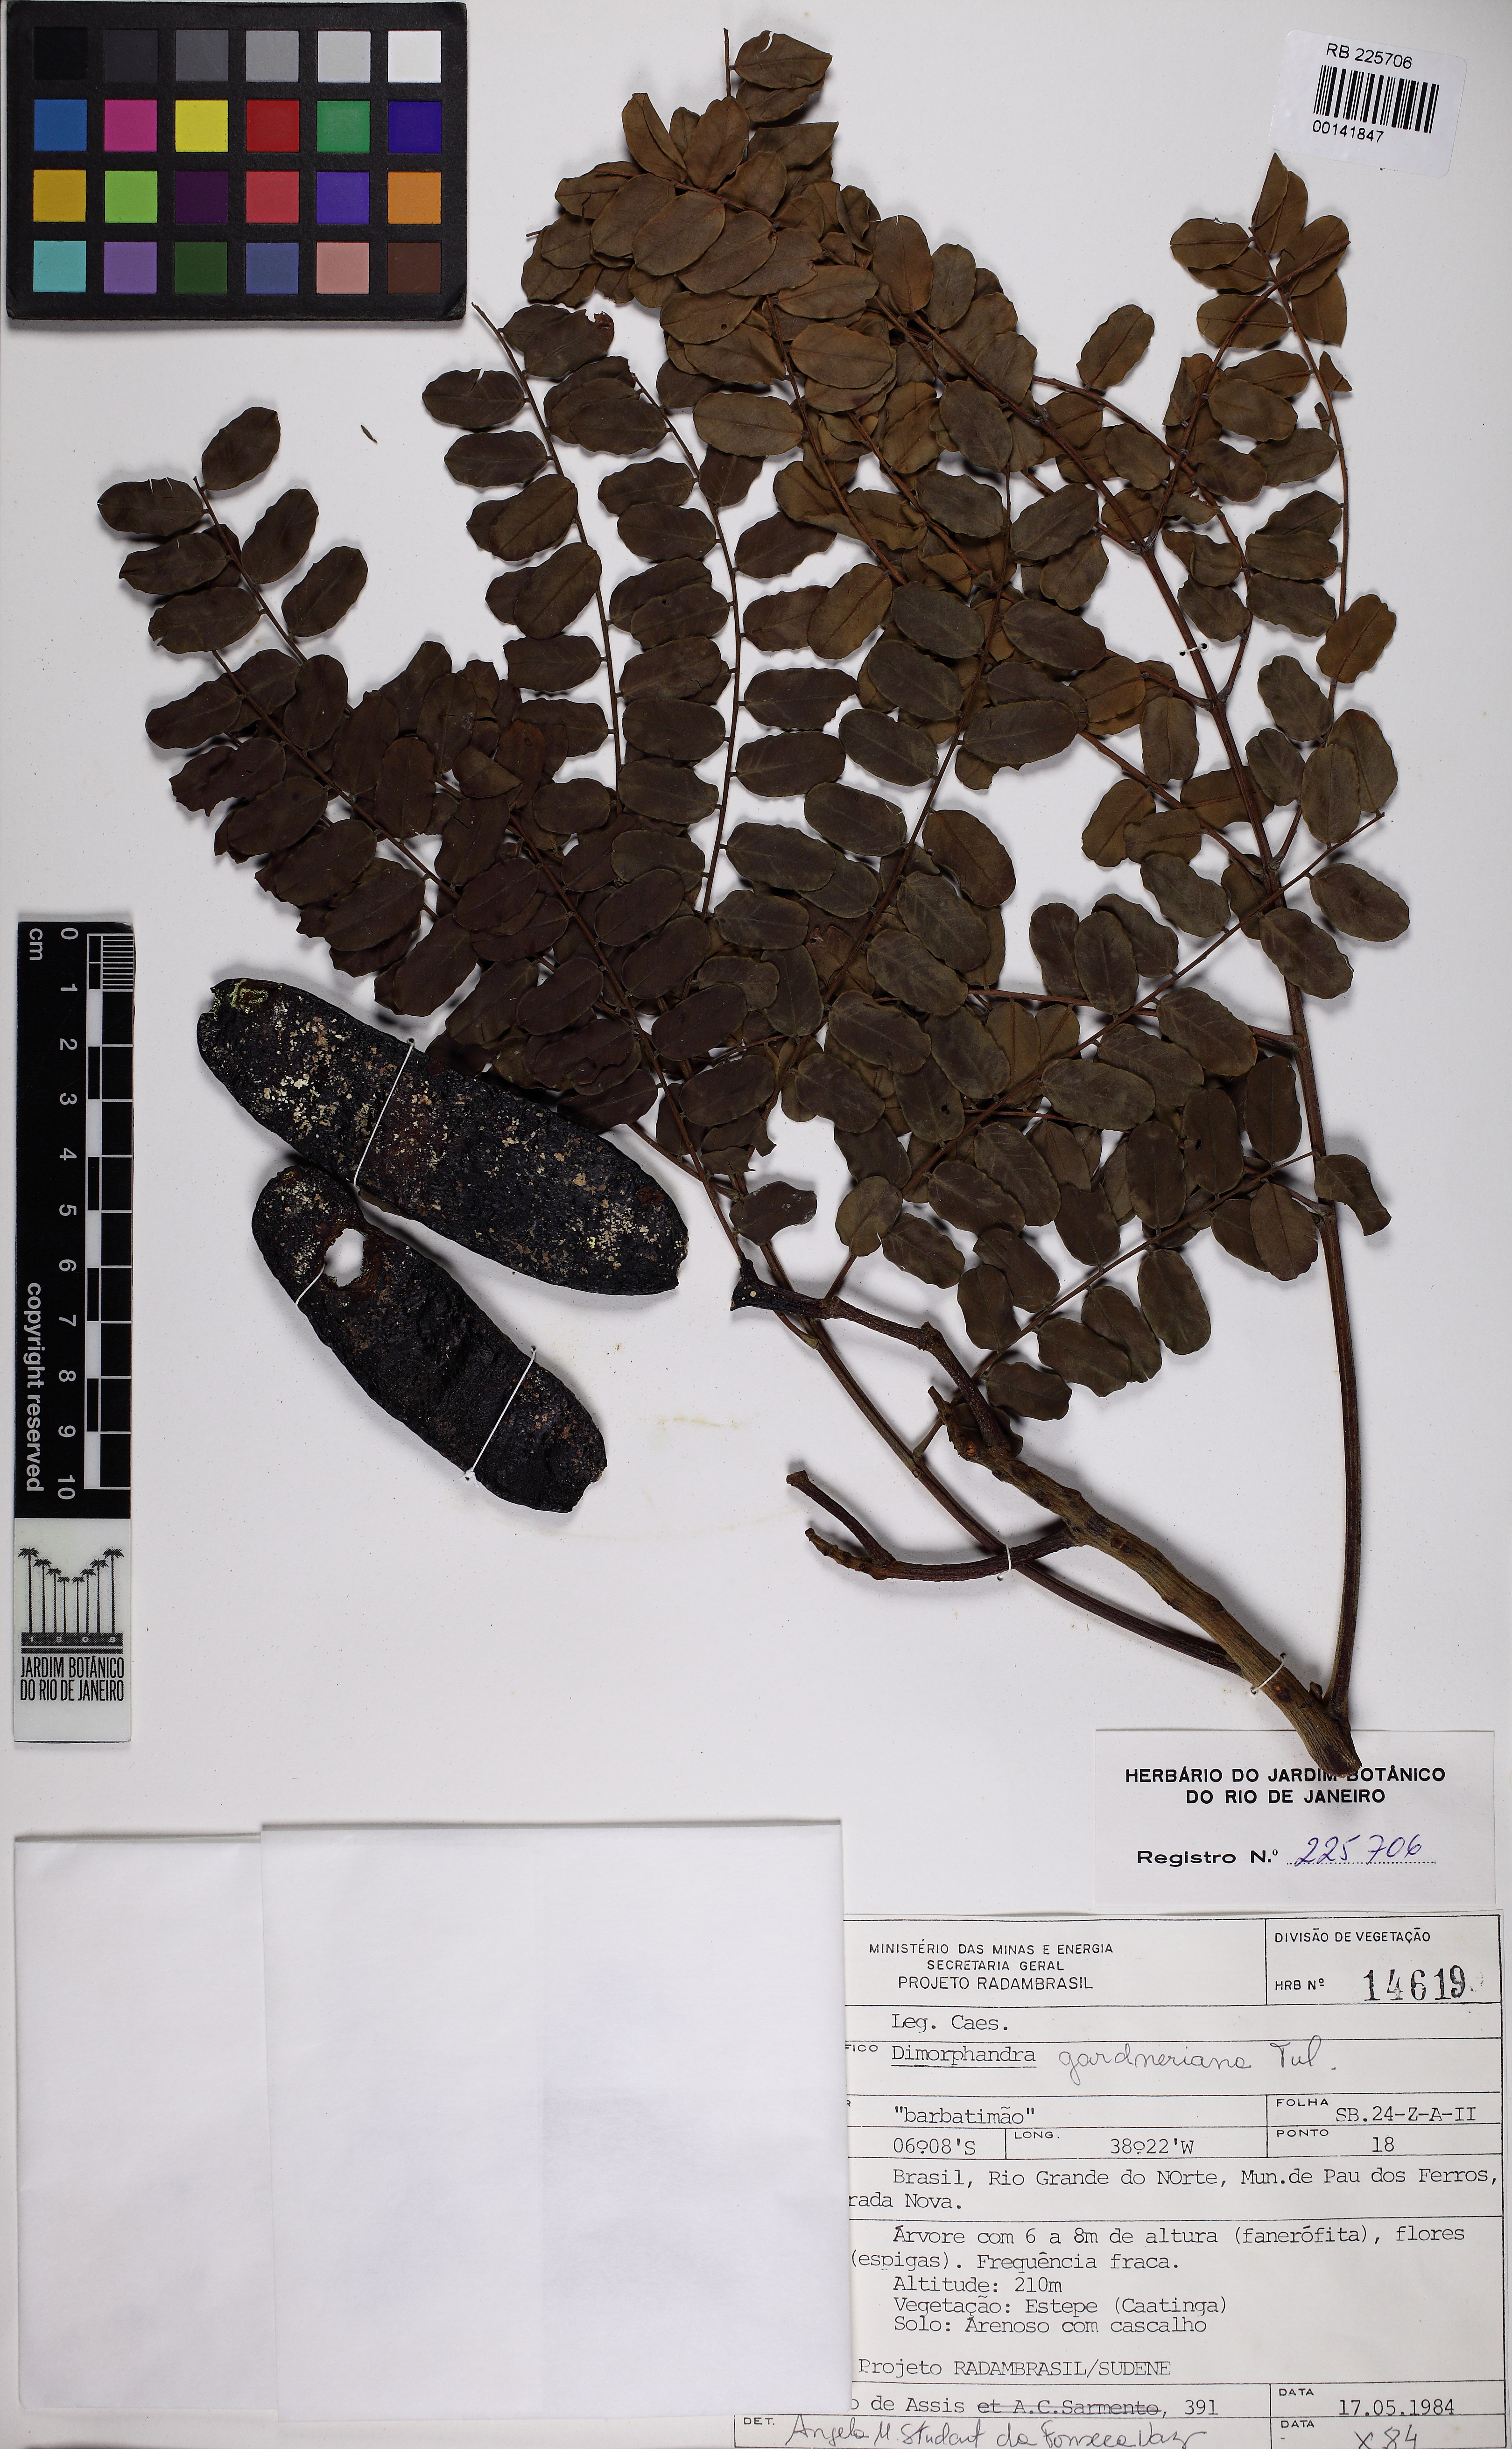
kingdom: Plantae
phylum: Tracheophyta
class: Magnoliopsida
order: Fabales
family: Fabaceae
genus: Dimorphandra
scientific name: Dimorphandra gardneriana
